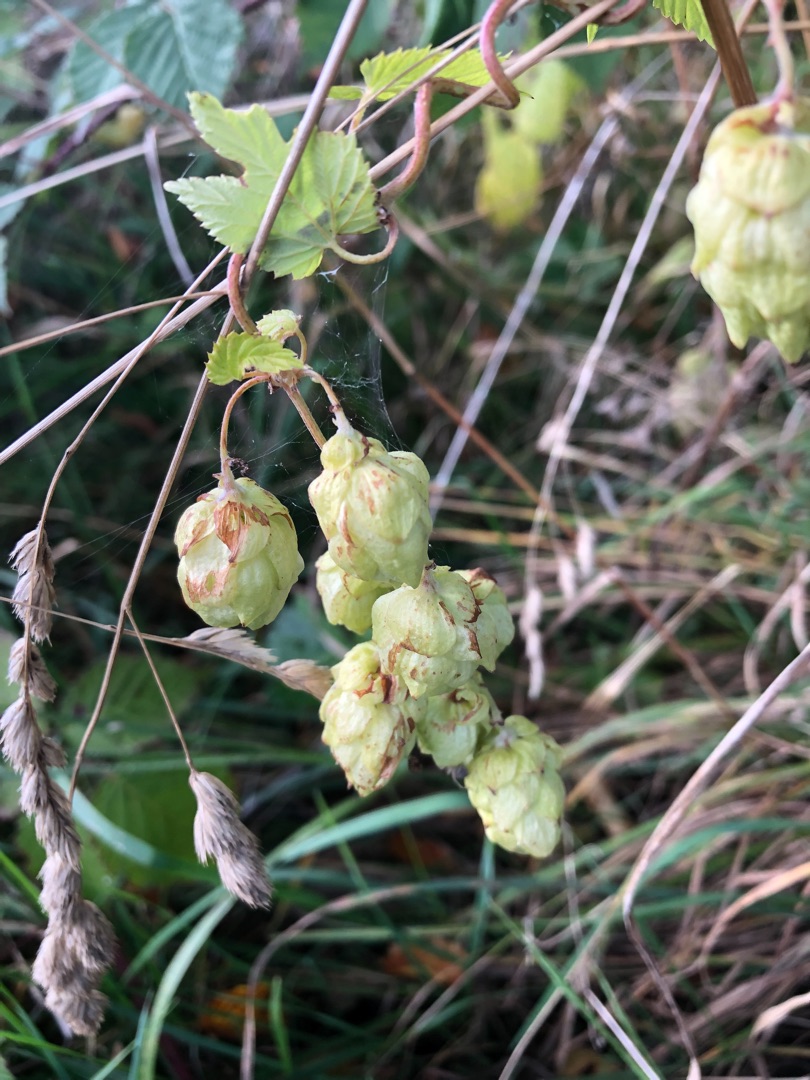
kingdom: Plantae
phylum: Tracheophyta
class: Magnoliopsida
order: Rosales
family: Cannabaceae
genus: Humulus
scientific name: Humulus lupulus
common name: Humle
